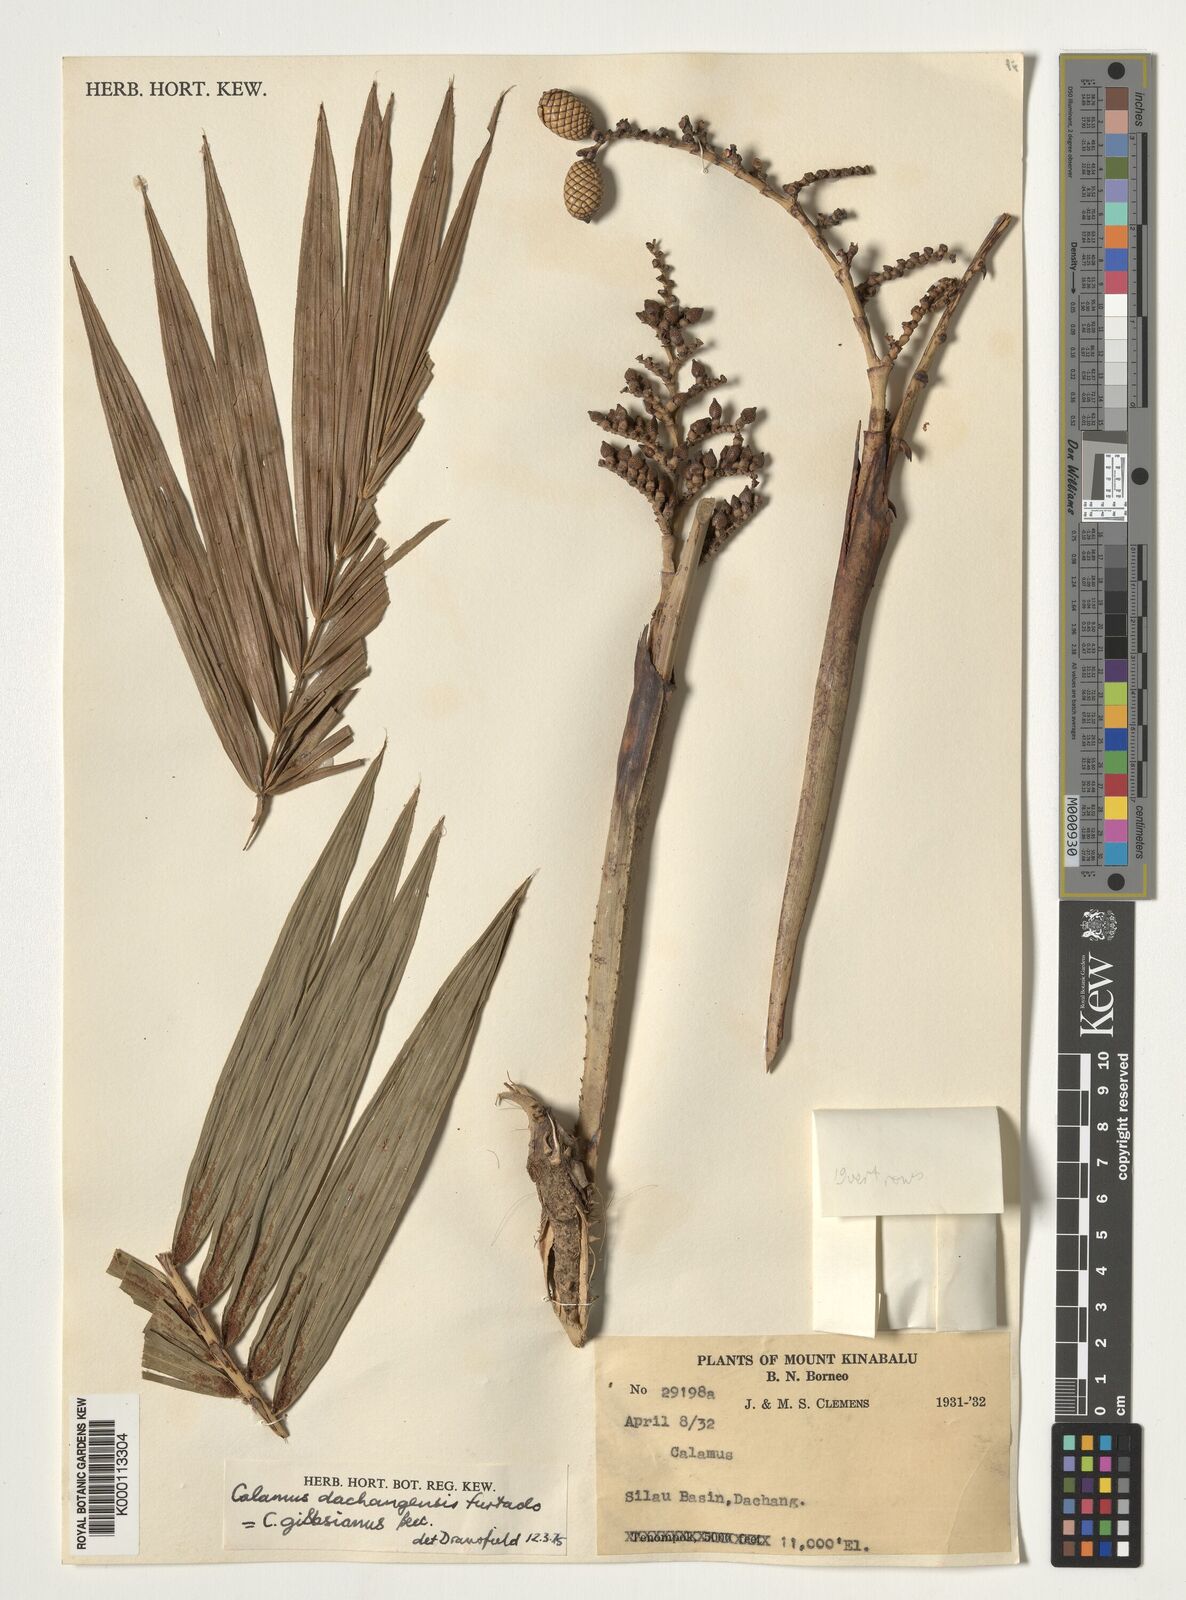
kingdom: Plantae
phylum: Tracheophyta
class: Liliopsida
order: Arecales
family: Arecaceae
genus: Calamus
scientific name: Calamus gibbsianus
